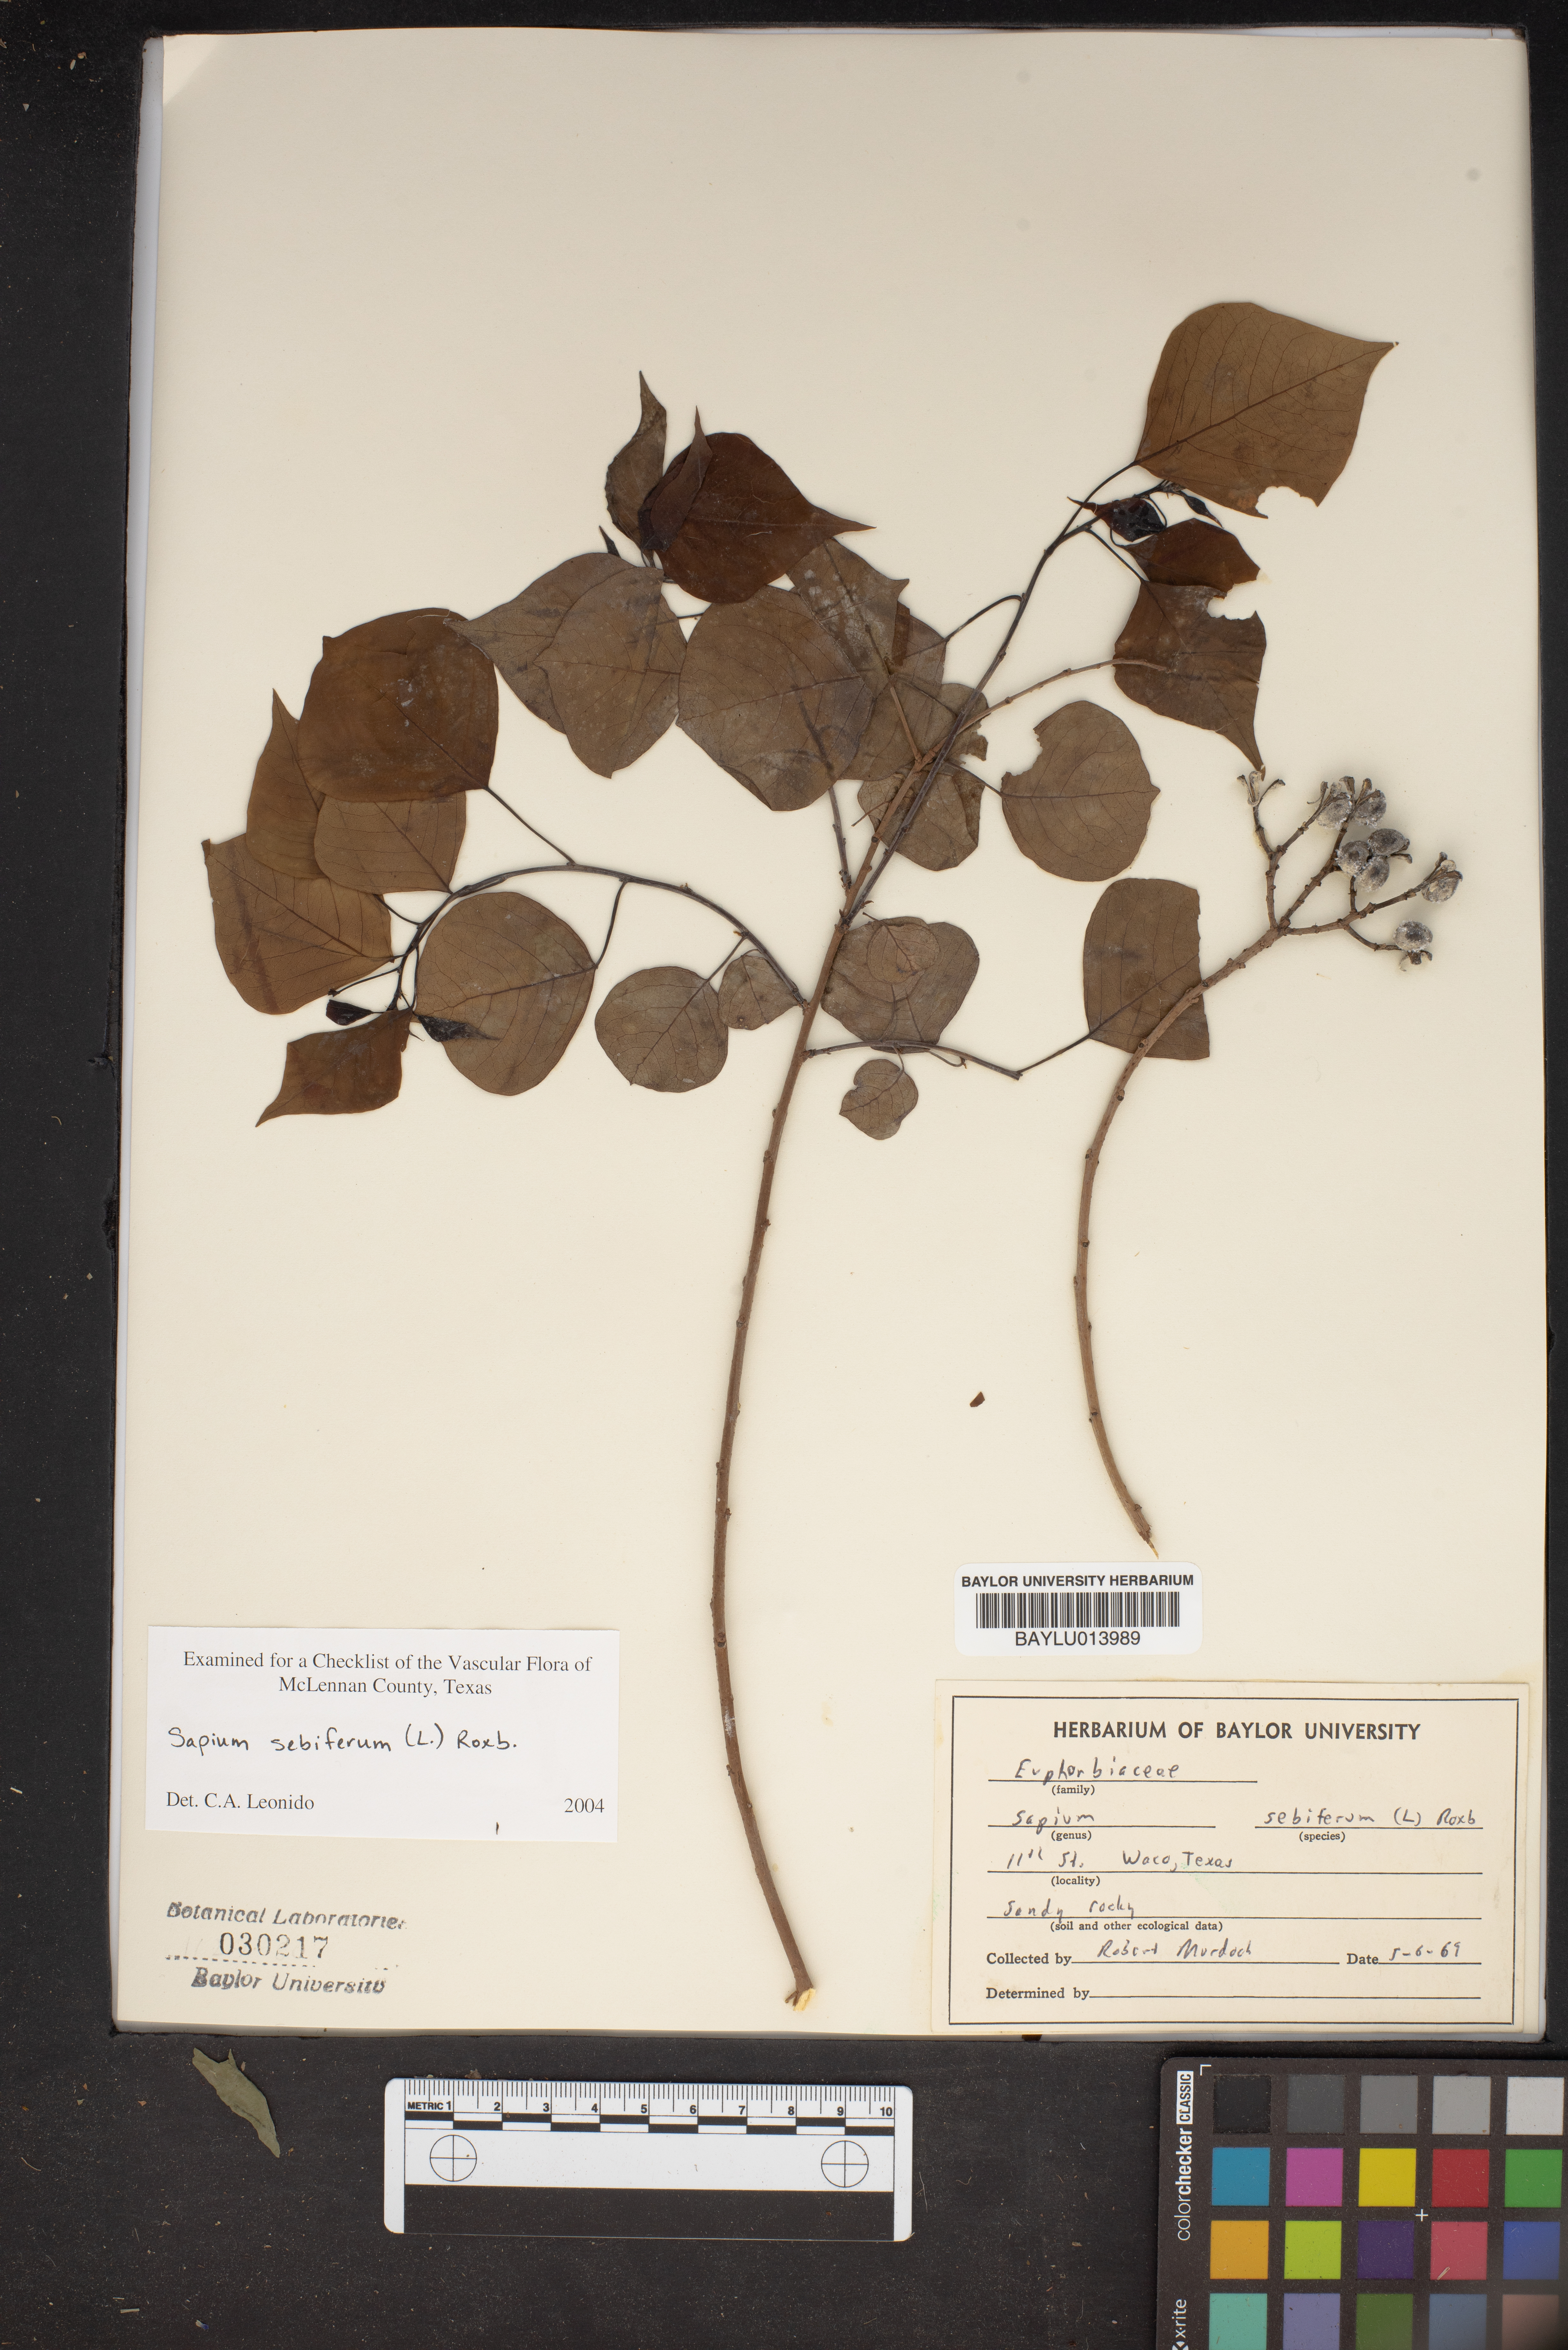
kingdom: Plantae
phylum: Tracheophyta
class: Magnoliopsida
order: Malpighiales
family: Euphorbiaceae
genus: Triadica
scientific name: Triadica sebifera
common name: Chinese tallow
